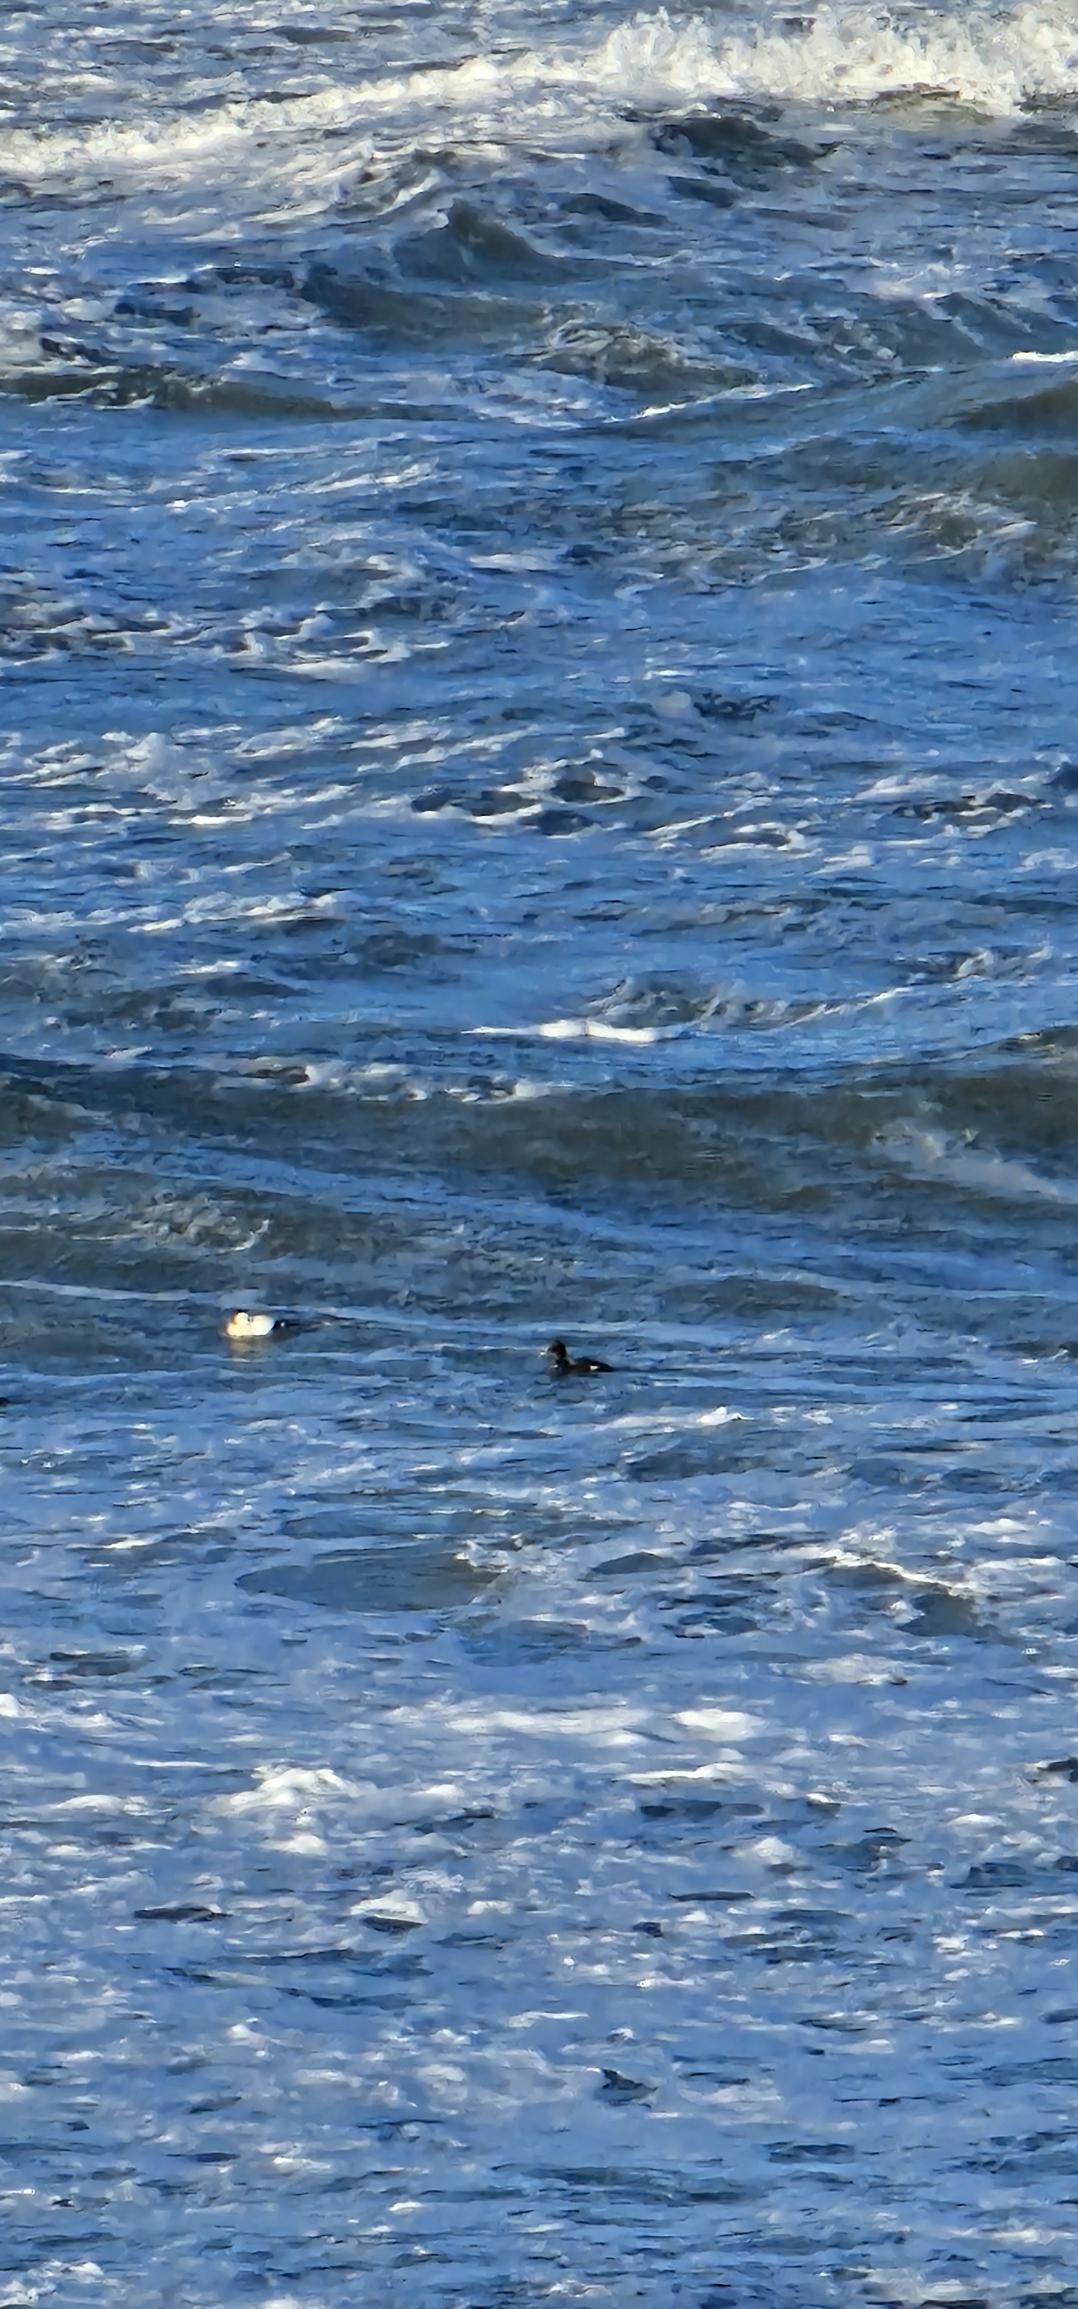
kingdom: Animalia
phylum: Chordata
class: Aves
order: Anseriformes
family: Anatidae
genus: Melanitta
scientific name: Melanitta fusca
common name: Fløjlsand
